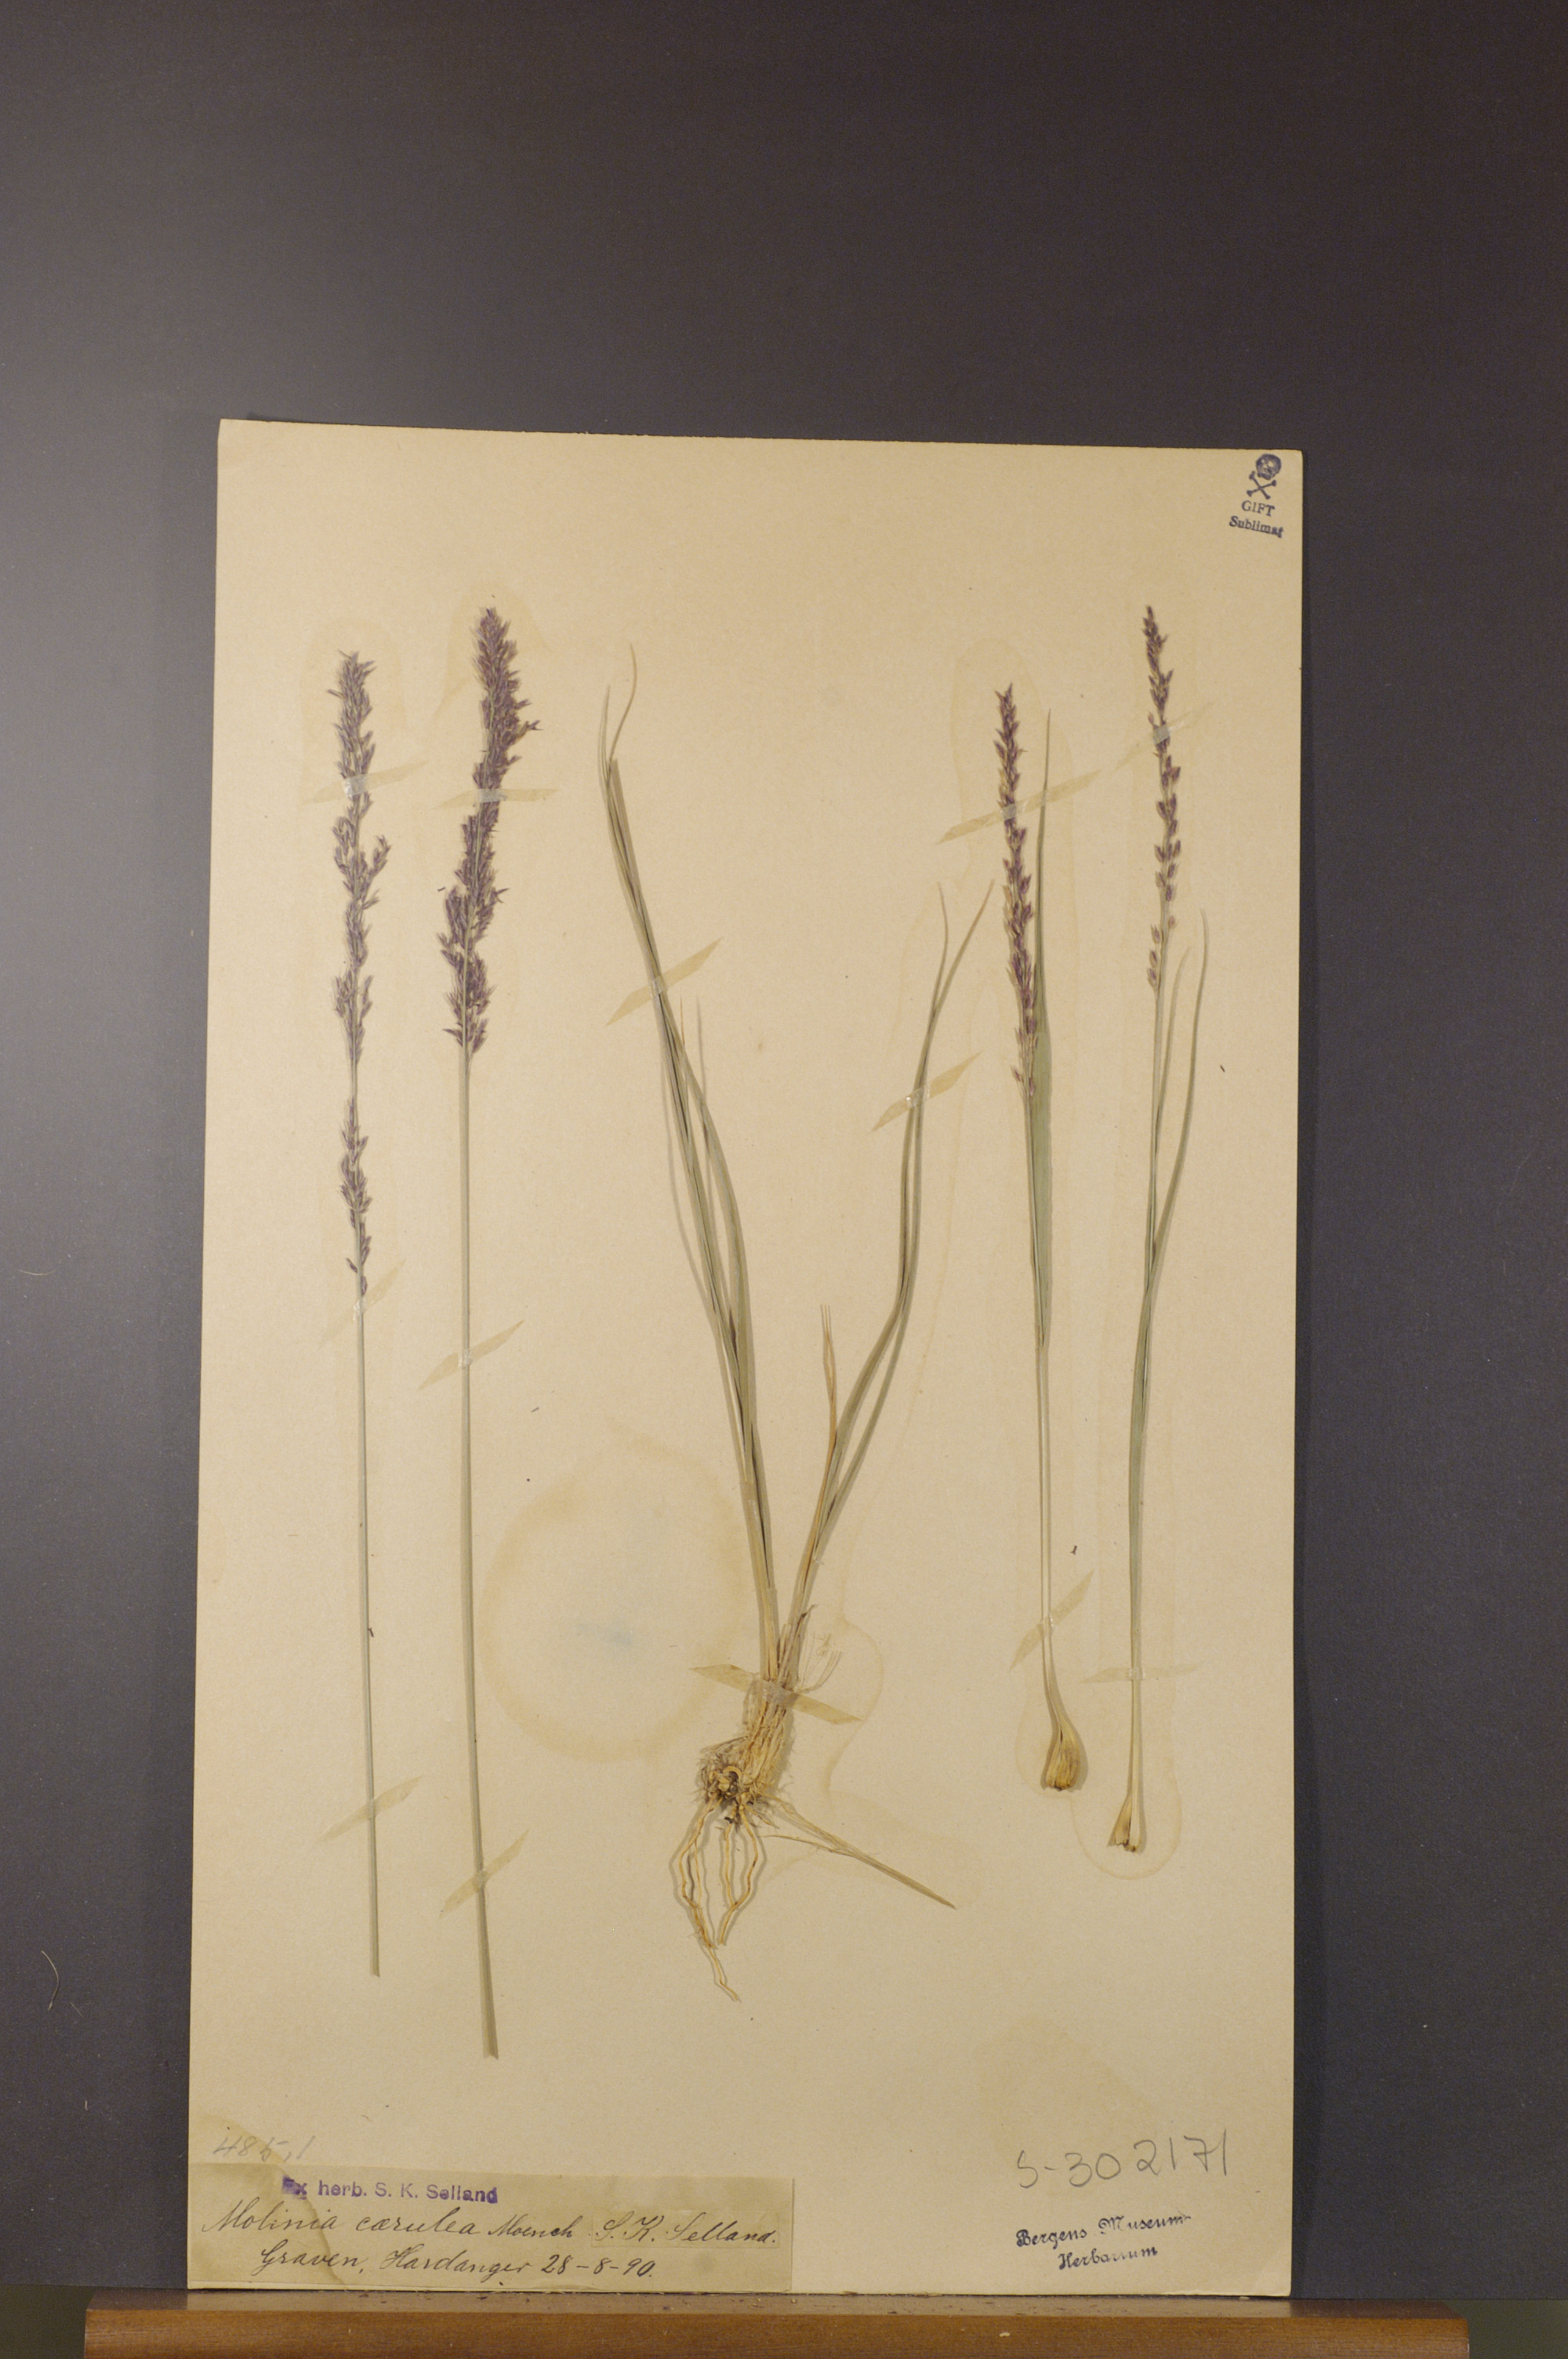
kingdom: Plantae
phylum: Tracheophyta
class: Liliopsida
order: Poales
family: Poaceae
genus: Molinia
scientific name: Molinia caerulea
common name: Purple moor-grass
